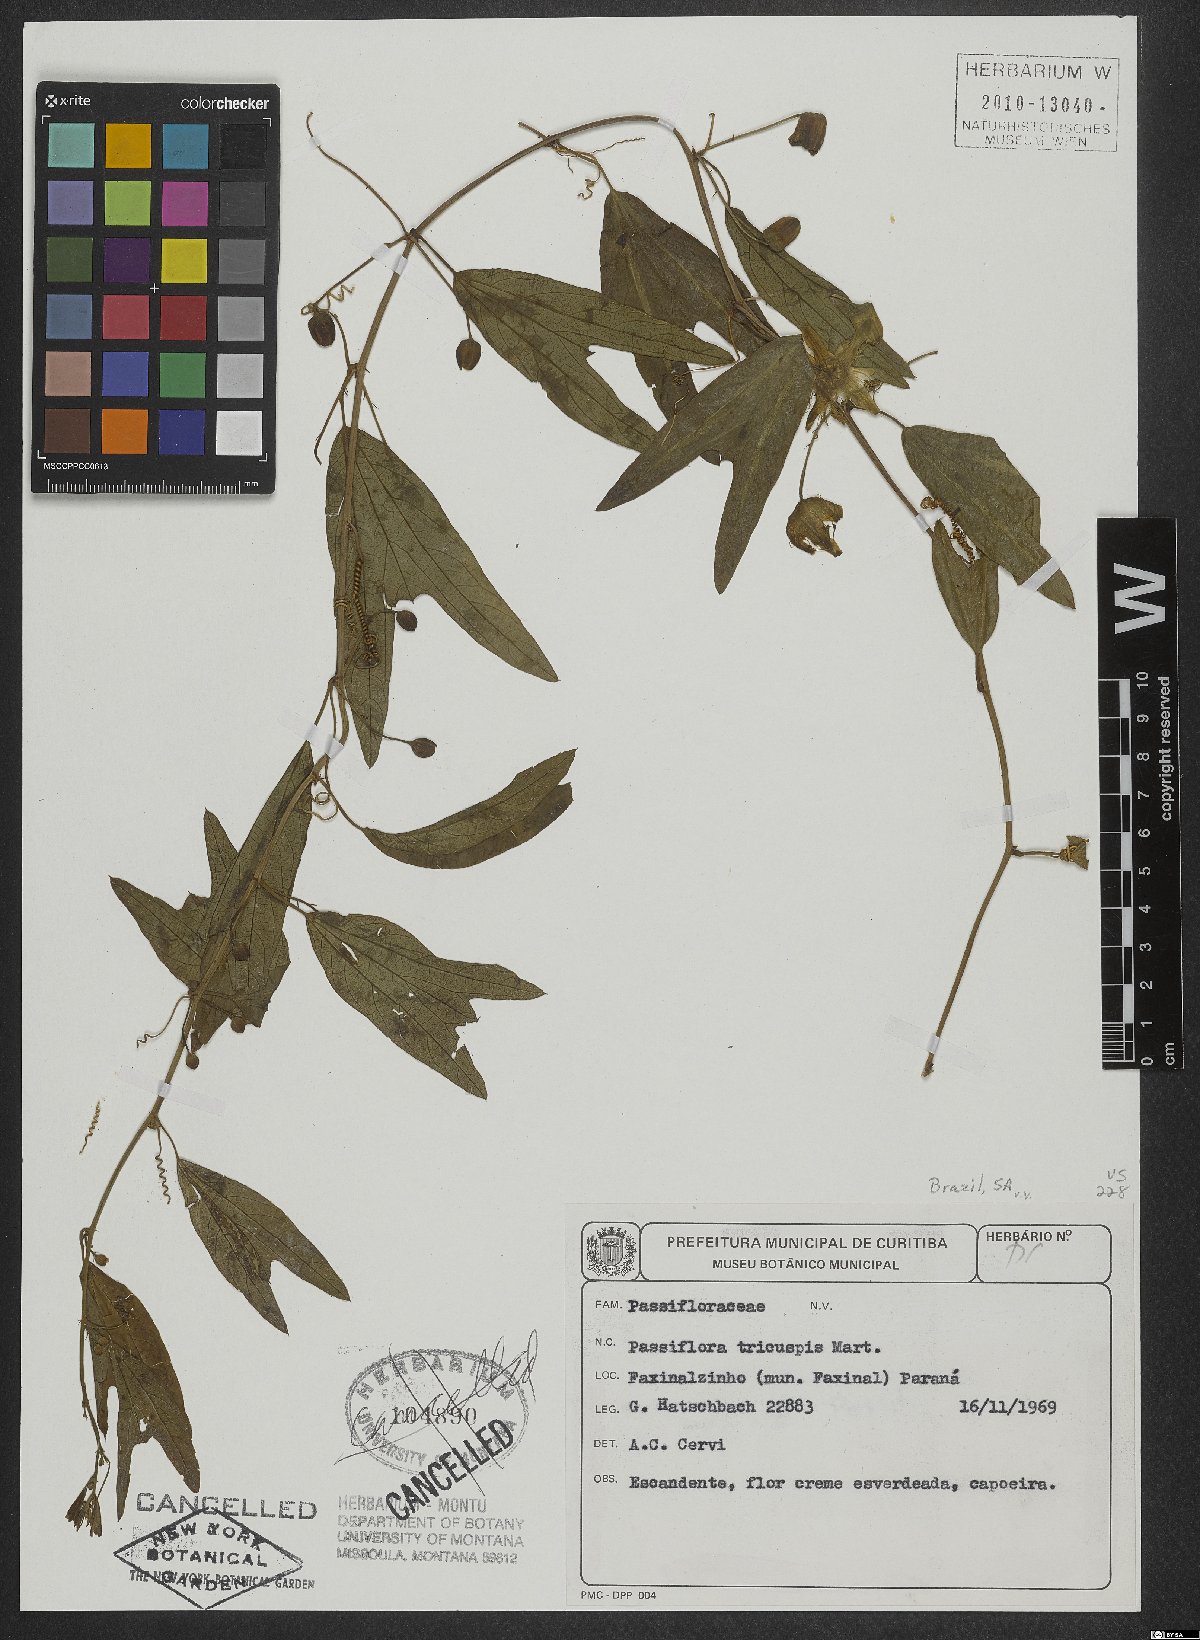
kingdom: Plantae
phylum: Tracheophyta
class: Magnoliopsida
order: Malpighiales
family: Passifloraceae
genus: Passiflora
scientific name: Passiflora tricuspis
